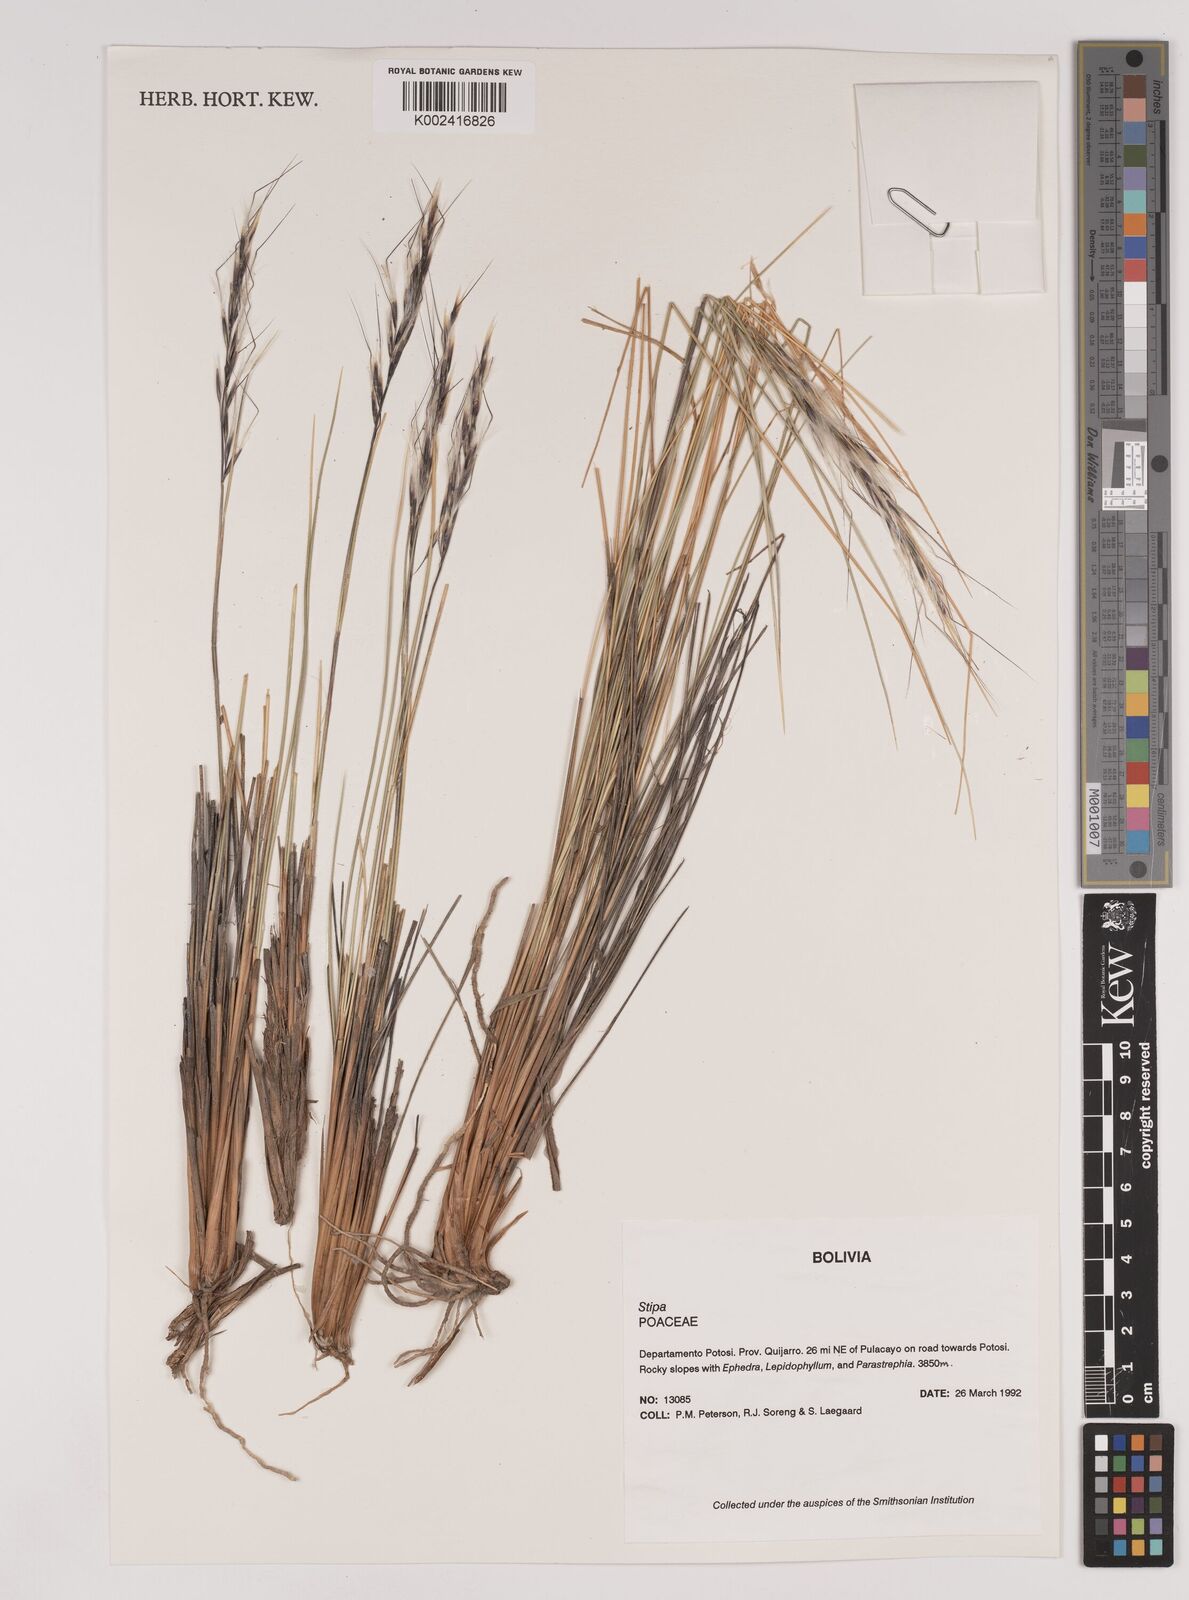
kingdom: Plantae
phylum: Tracheophyta
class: Liliopsida
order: Poales
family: Poaceae
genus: Pappostipa
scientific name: Pappostipa vaginata
